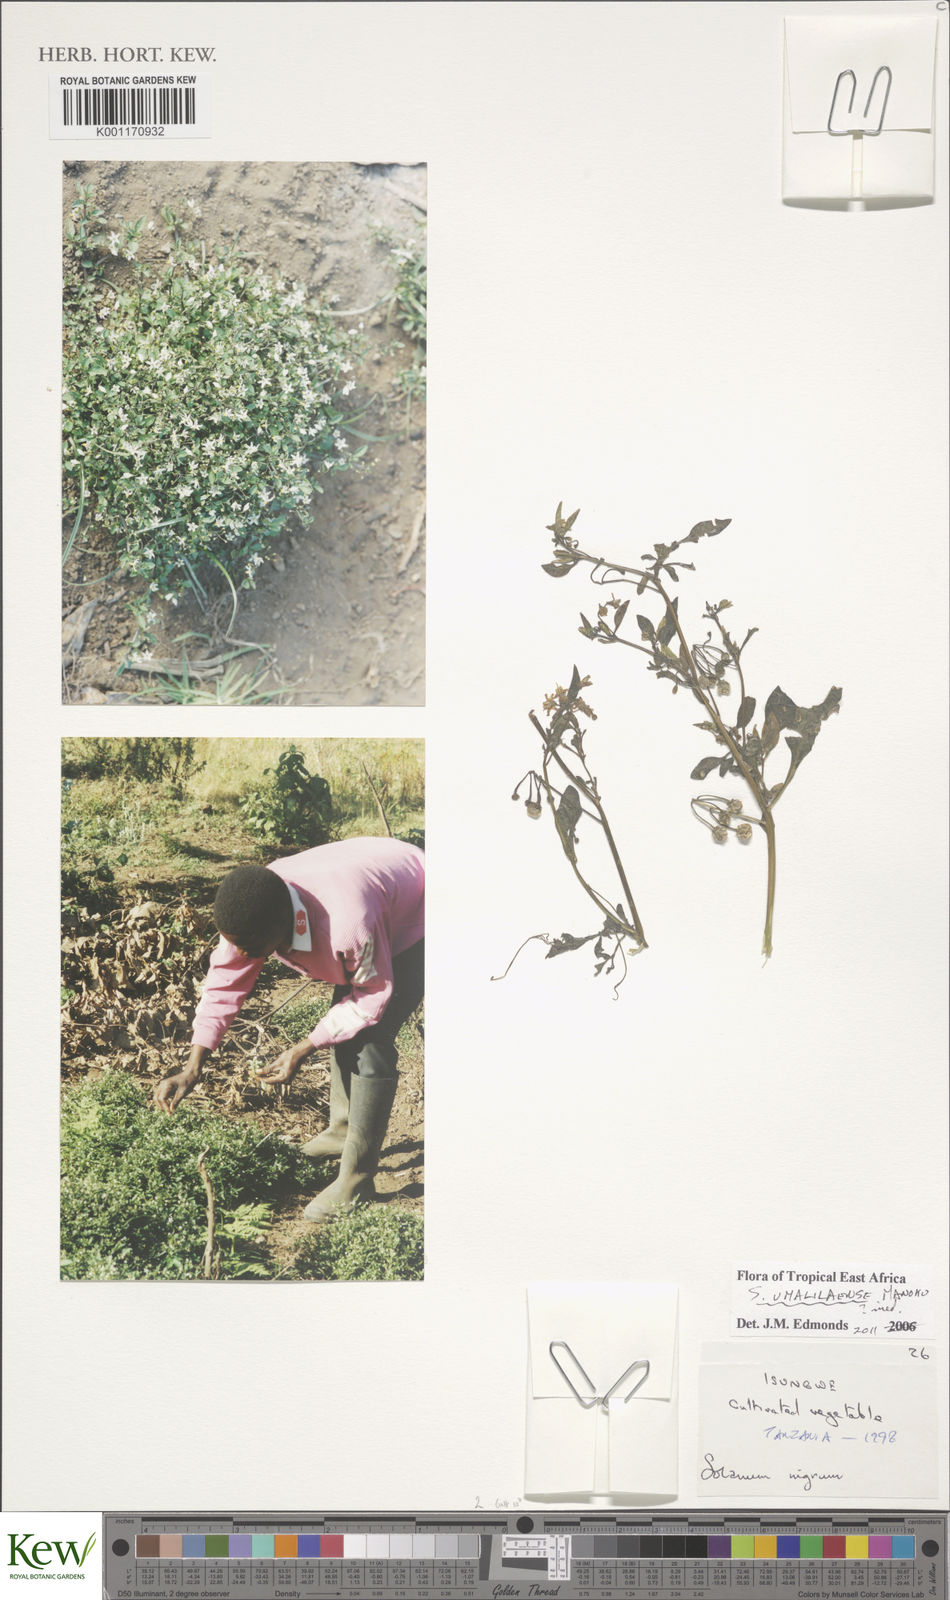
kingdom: Plantae
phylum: Tracheophyta
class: Magnoliopsida
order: Solanales
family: Solanaceae
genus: Solanum
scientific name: Solanum umalilaense
